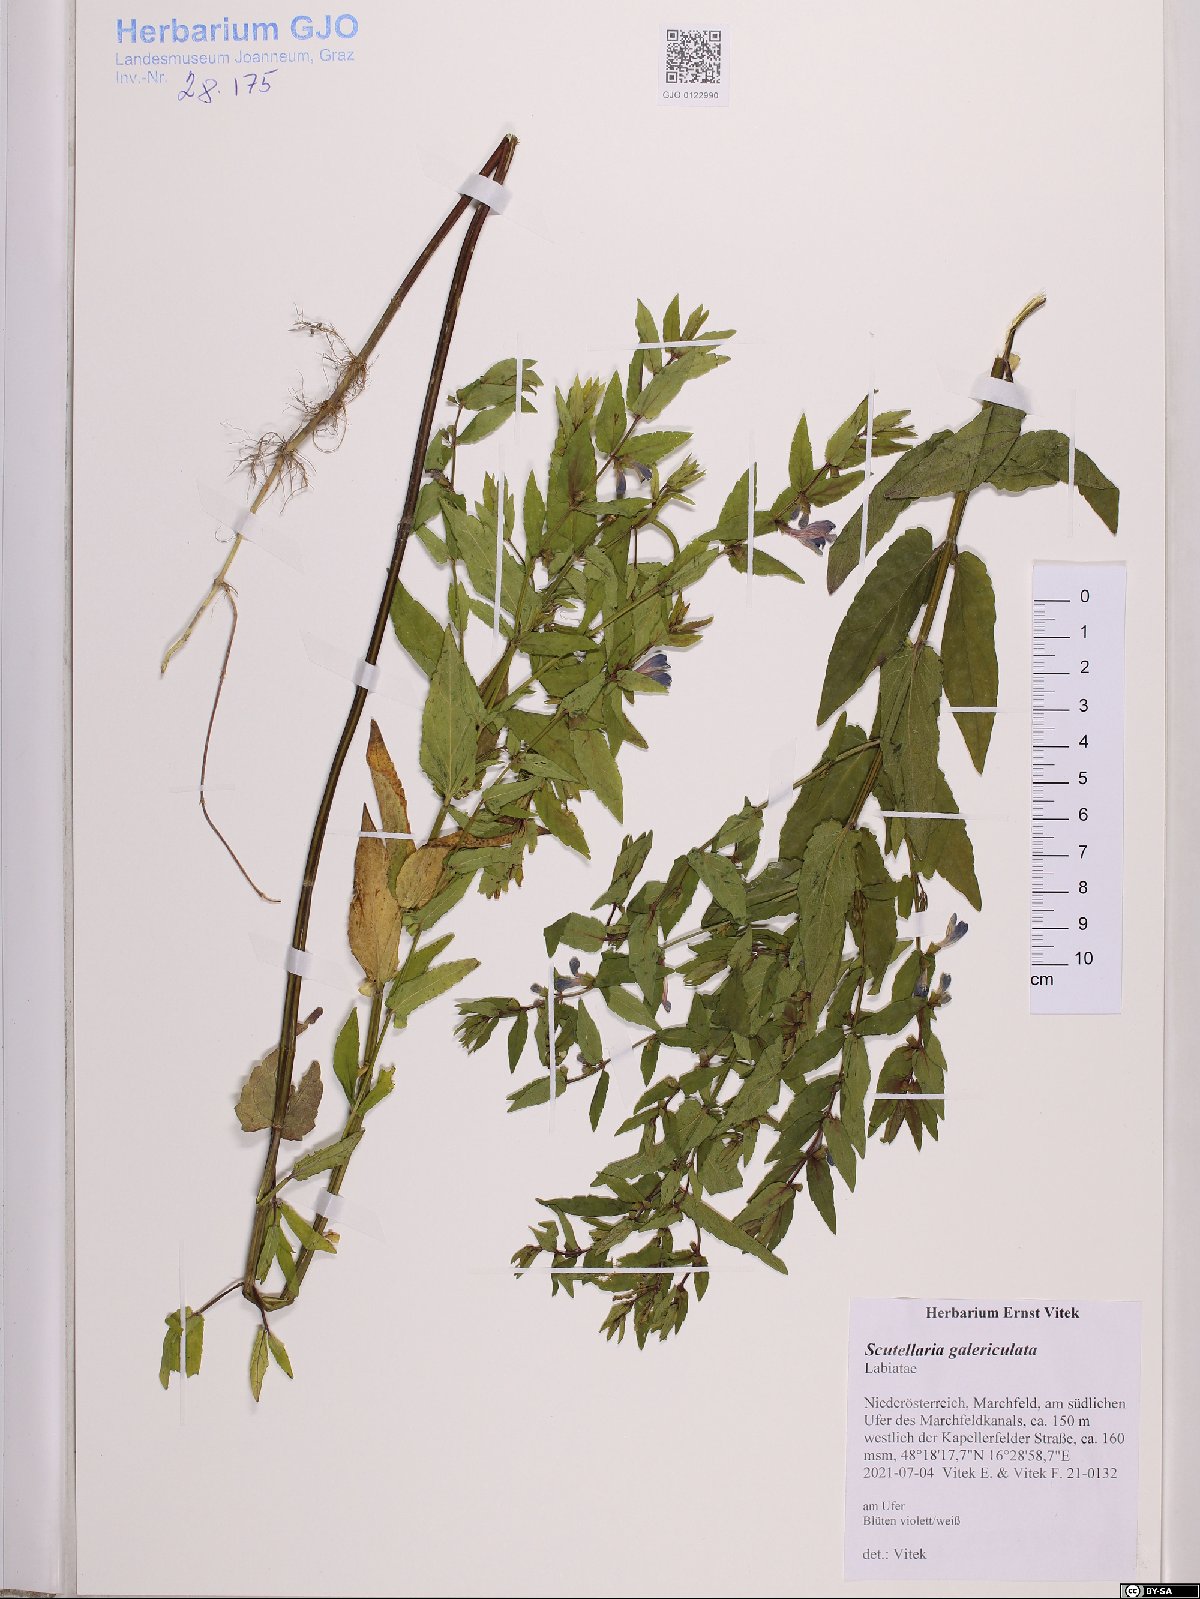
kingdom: Plantae
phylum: Tracheophyta
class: Magnoliopsida
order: Lamiales
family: Lamiaceae
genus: Scutellaria
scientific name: Scutellaria galericulata
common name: Skullcap
